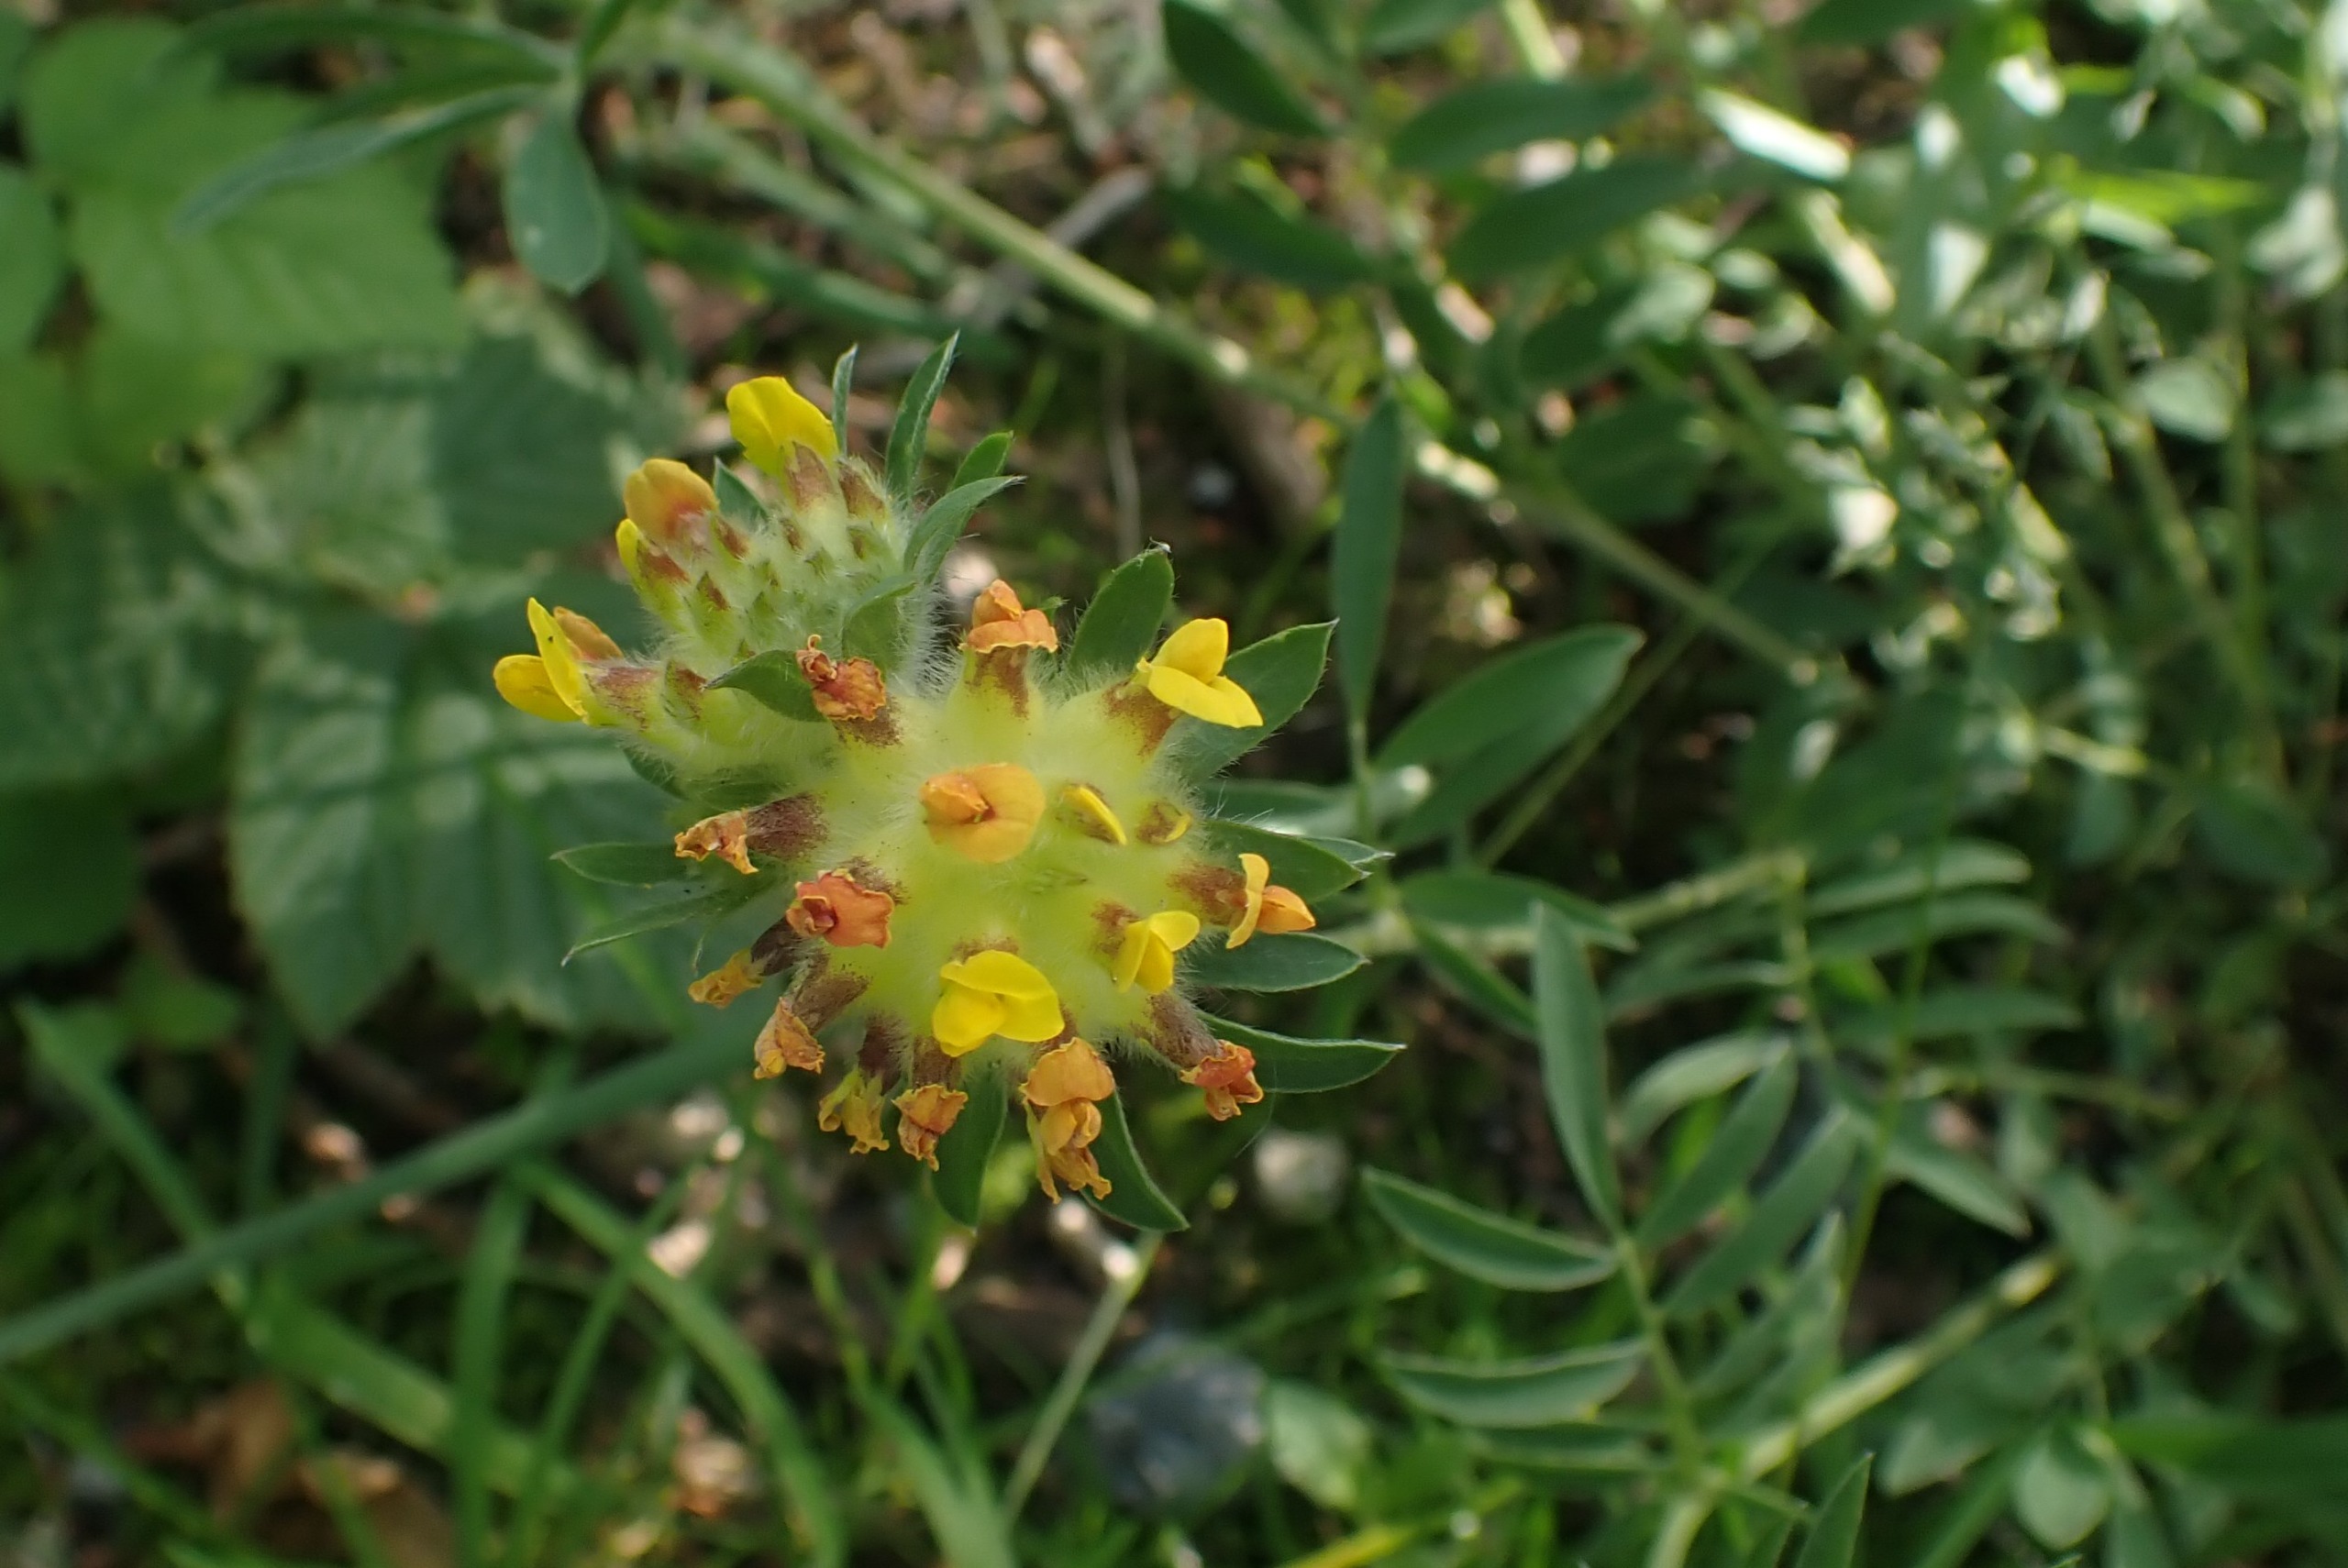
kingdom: Plantae
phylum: Tracheophyta
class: Magnoliopsida
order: Fabales
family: Fabaceae
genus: Anthyllis
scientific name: Anthyllis vulneraria
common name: Rundbælg
